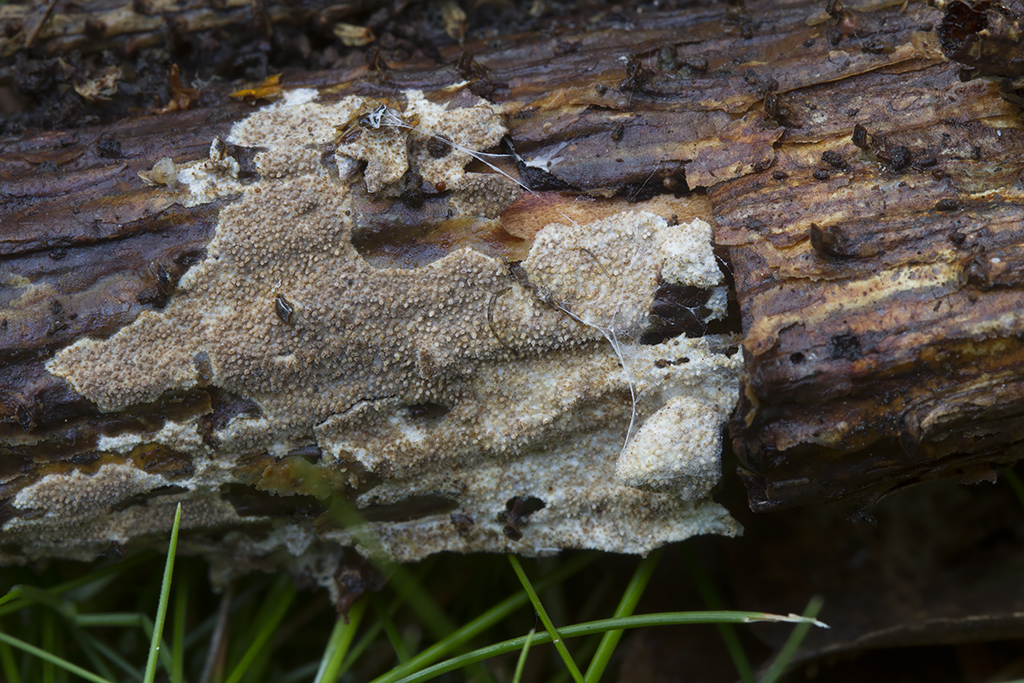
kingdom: Fungi
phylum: Basidiomycota
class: Agaricomycetes
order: Hymenochaetales
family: Rickenellaceae
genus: Resinicium
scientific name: Resinicium bicolor
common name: almindelig vokstand
